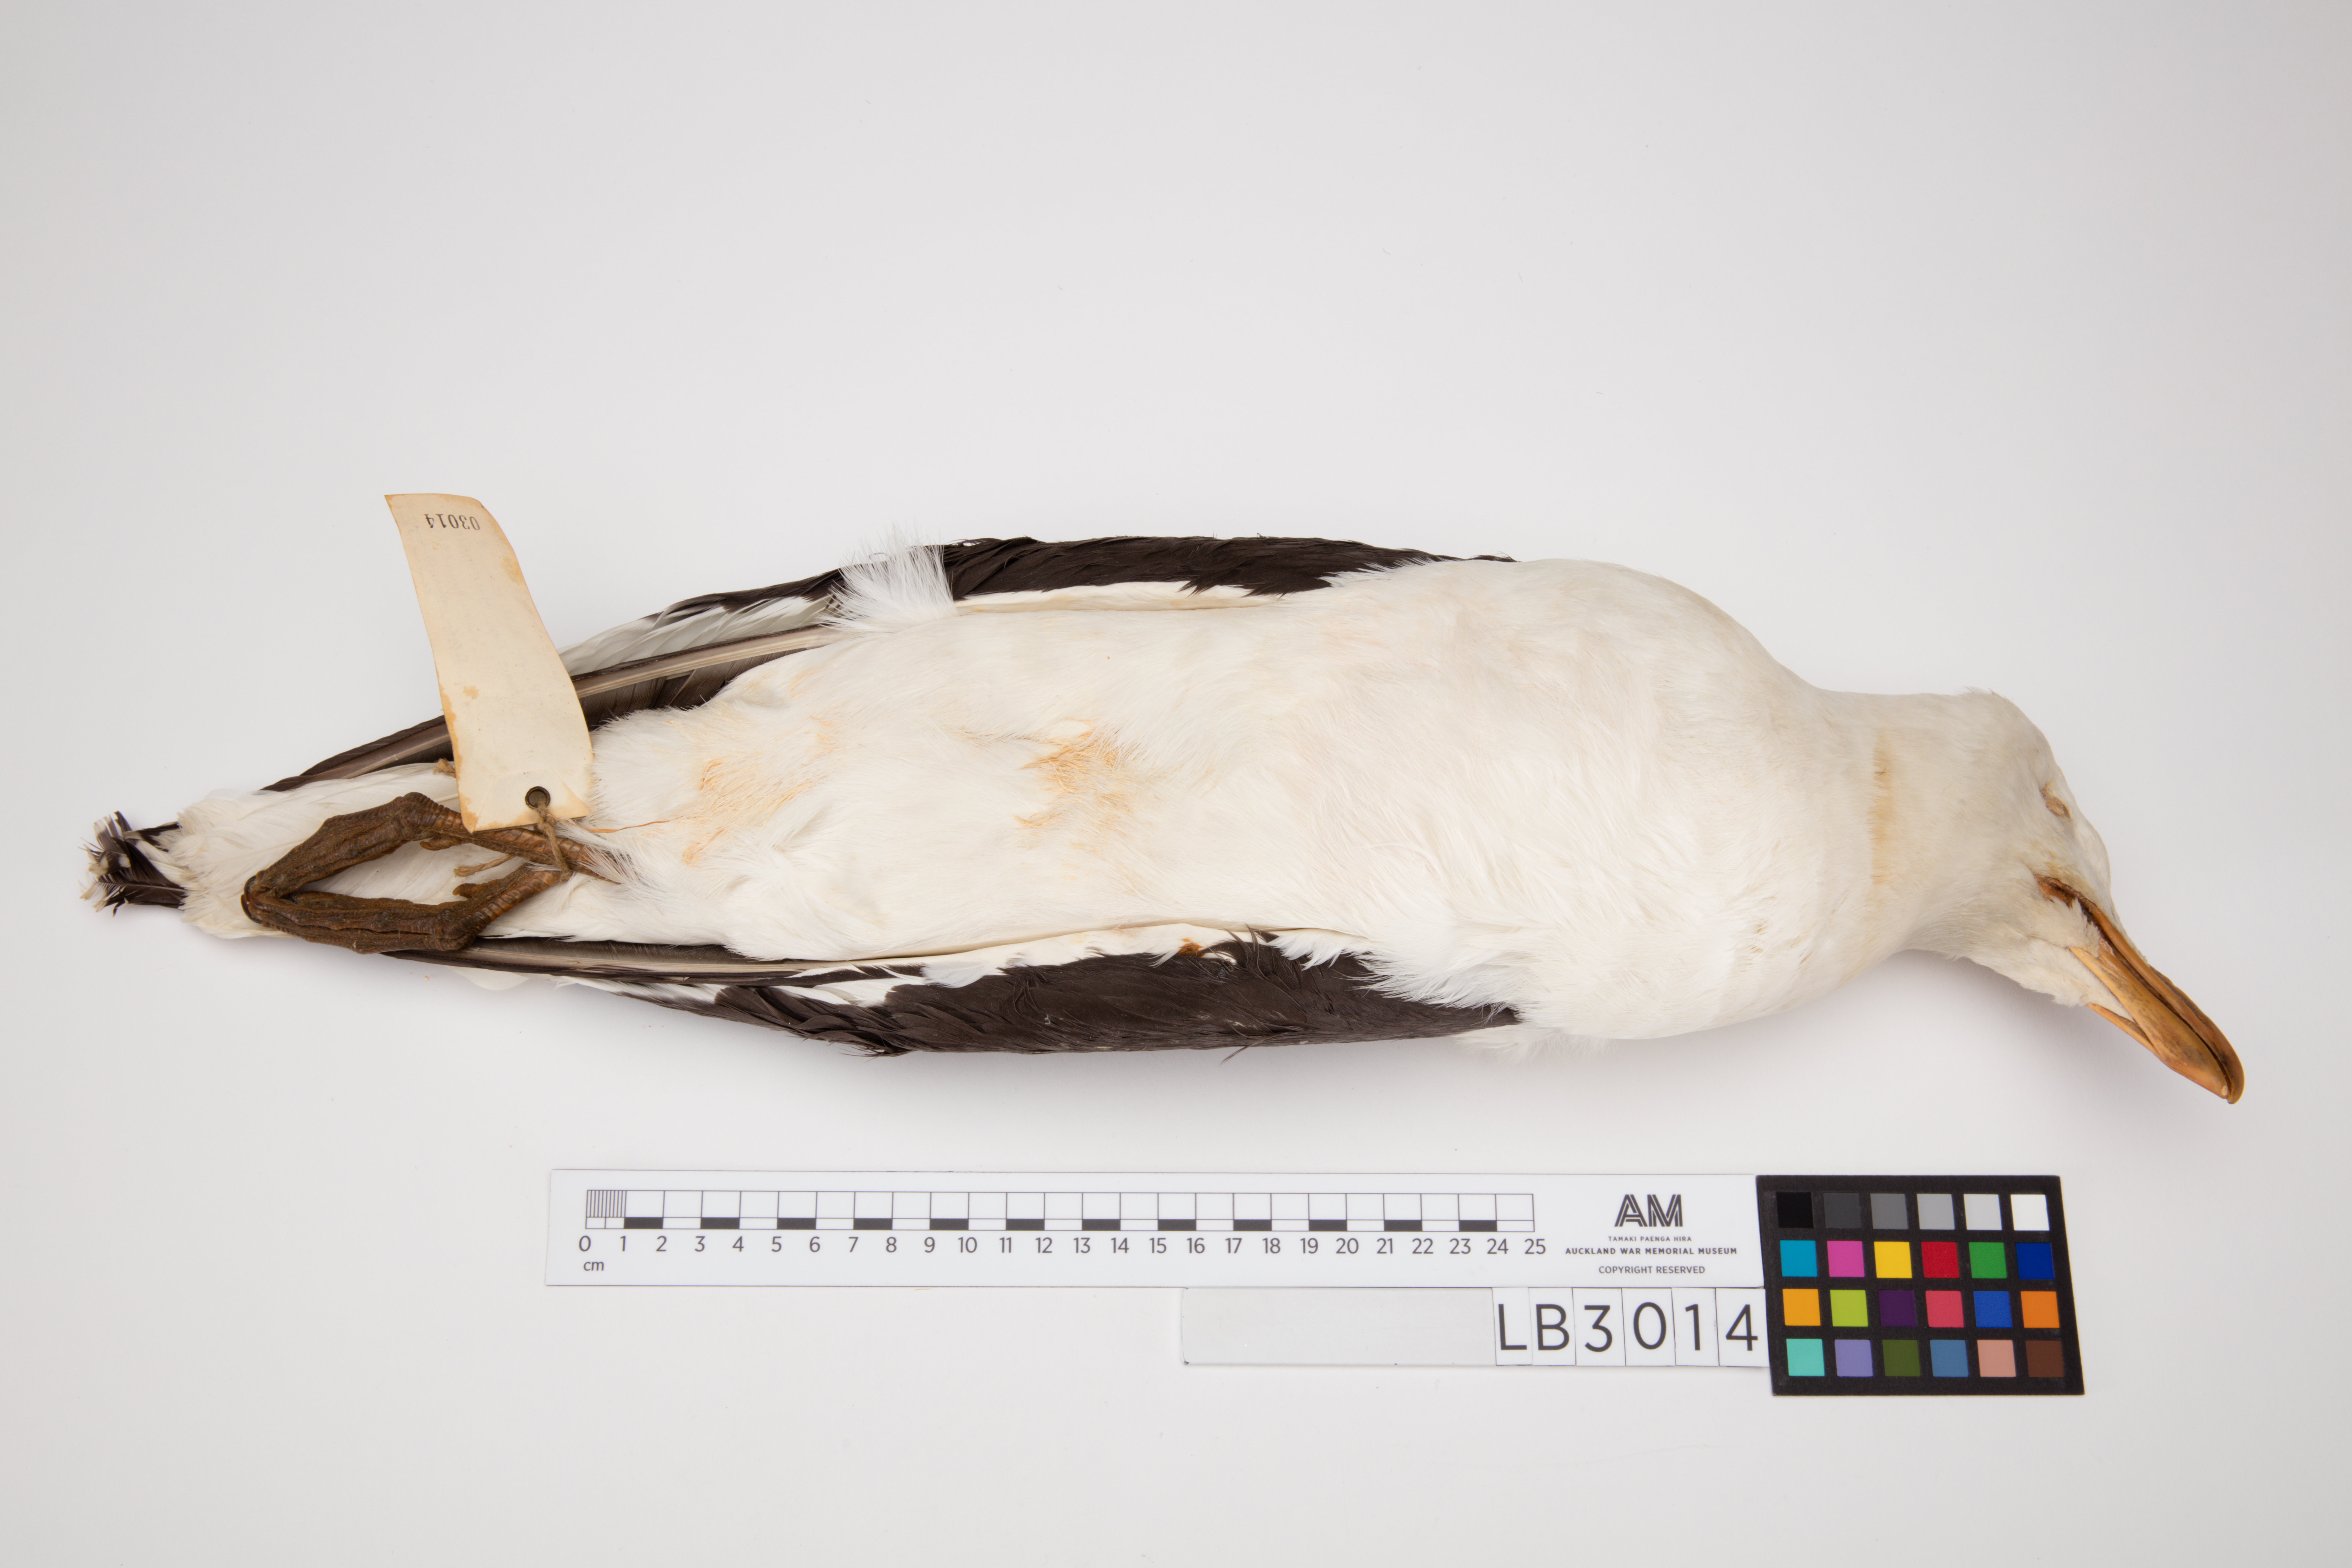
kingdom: Animalia
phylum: Chordata
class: Aves
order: Charadriiformes
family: Laridae
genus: Larus
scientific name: Larus dominicanus
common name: Kelp gull
